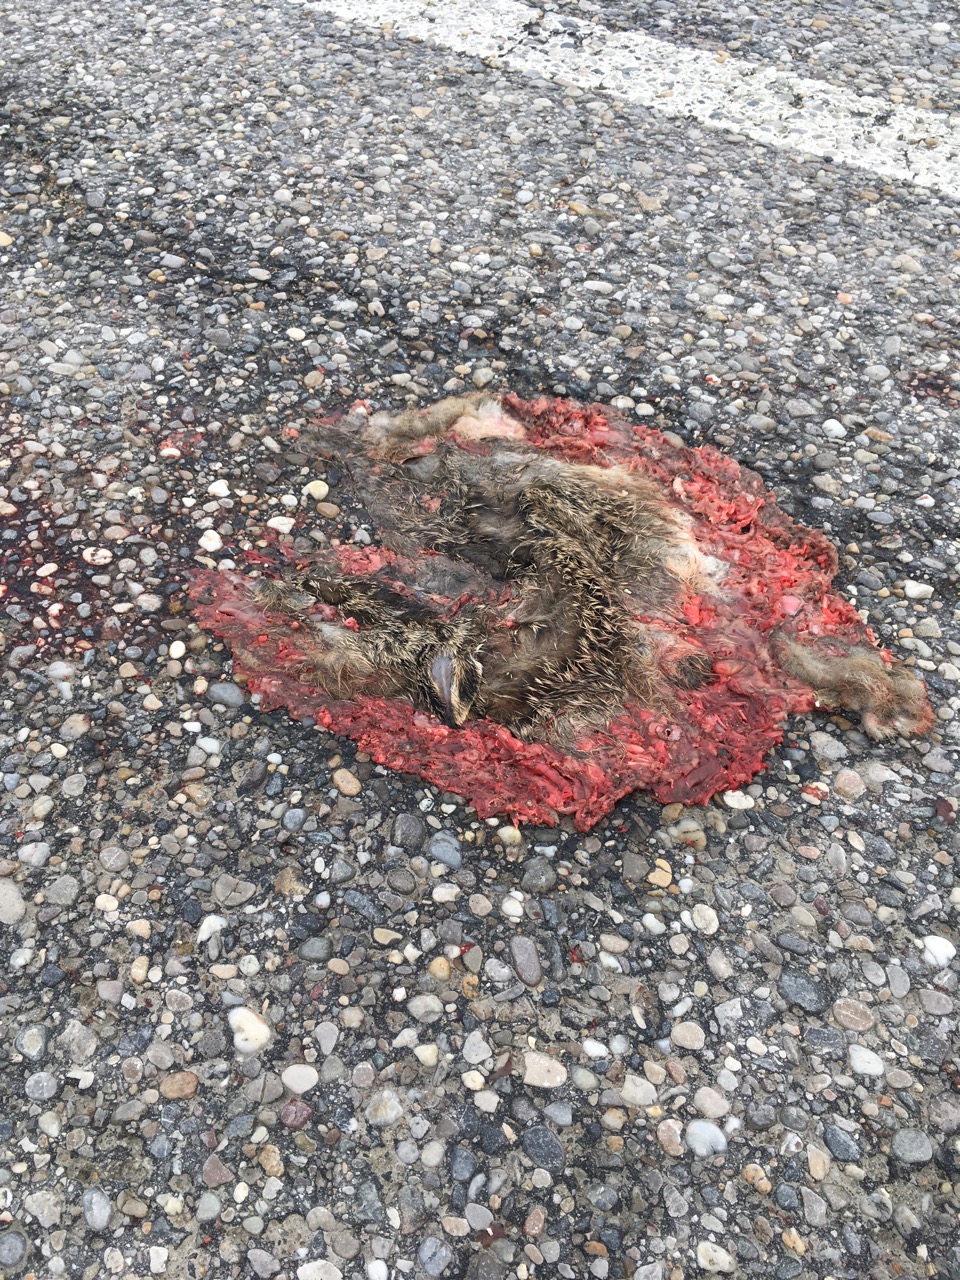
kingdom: Animalia
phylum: Chordata
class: Mammalia
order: Lagomorpha
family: Leporidae
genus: Lepus
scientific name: Lepus europaeus
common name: European hare
